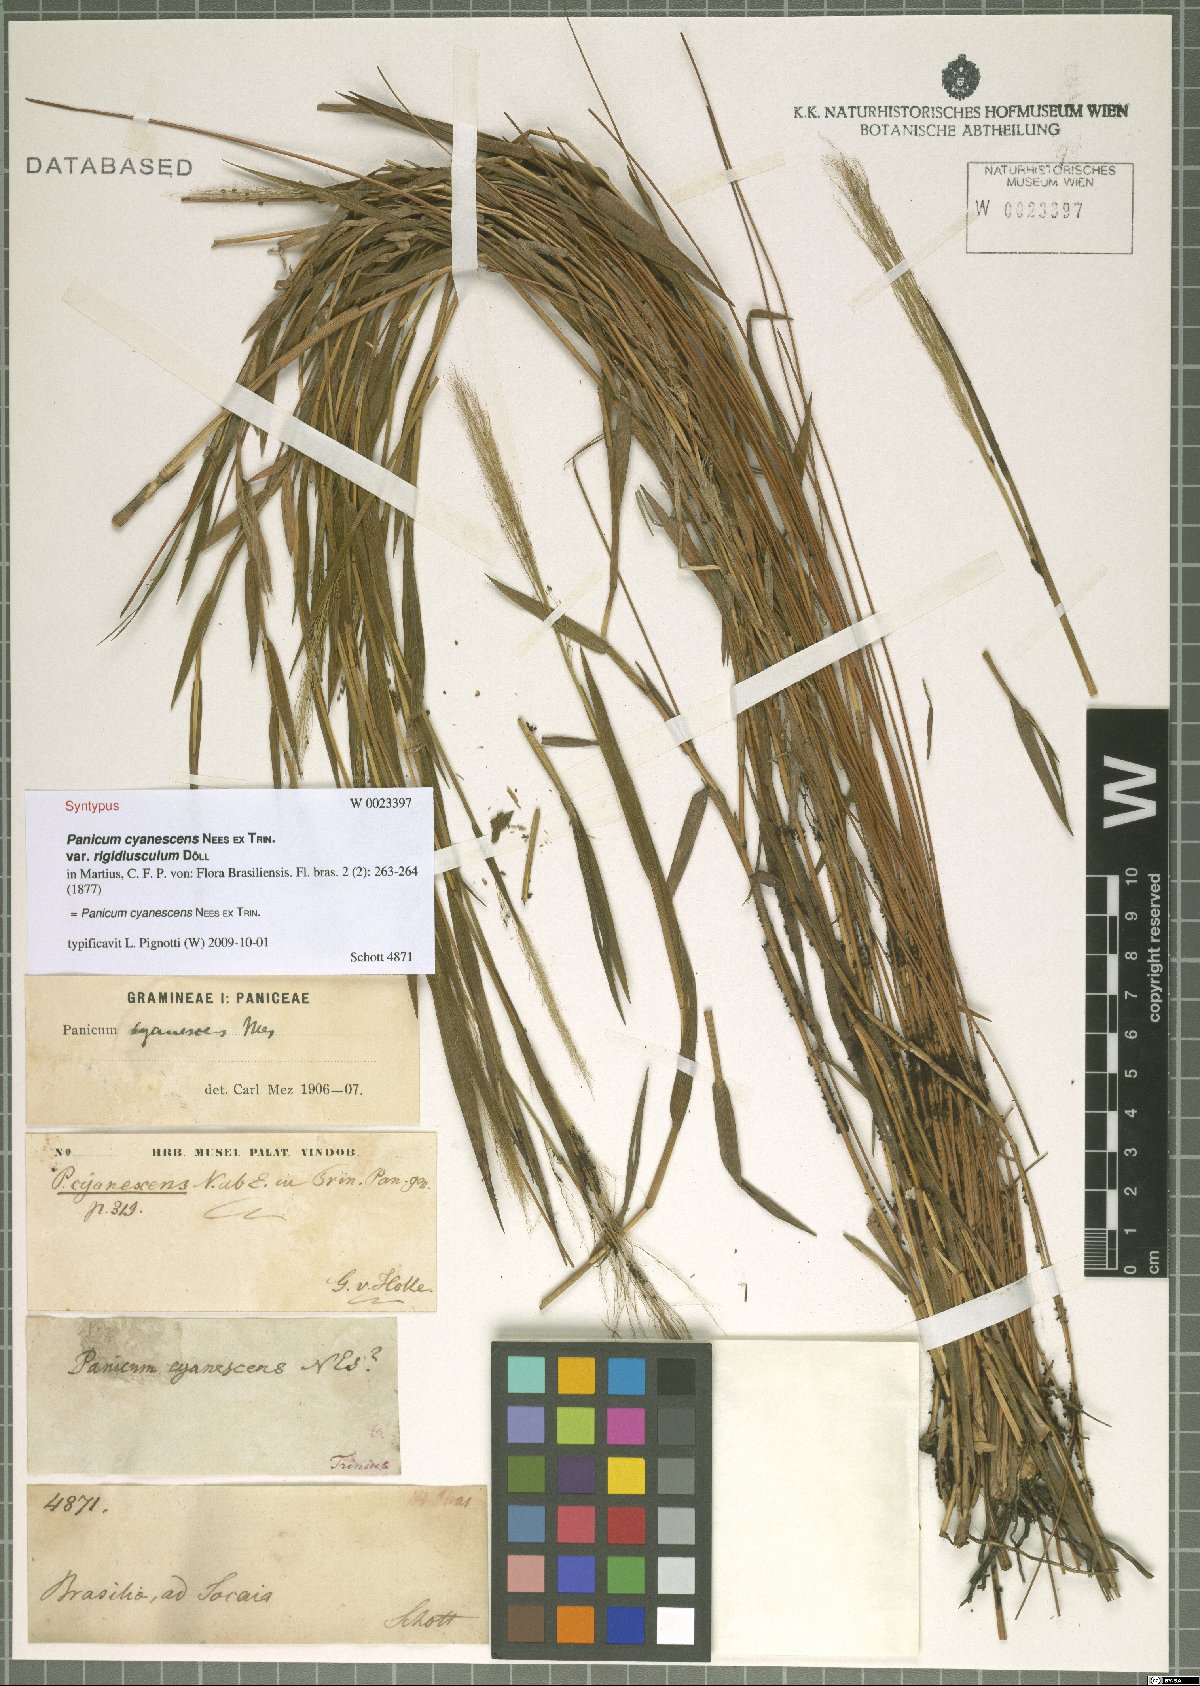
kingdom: Plantae
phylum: Tracheophyta
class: Liliopsida
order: Poales
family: Poaceae
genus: Trichanthecium
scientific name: Trichanthecium cyanescens
